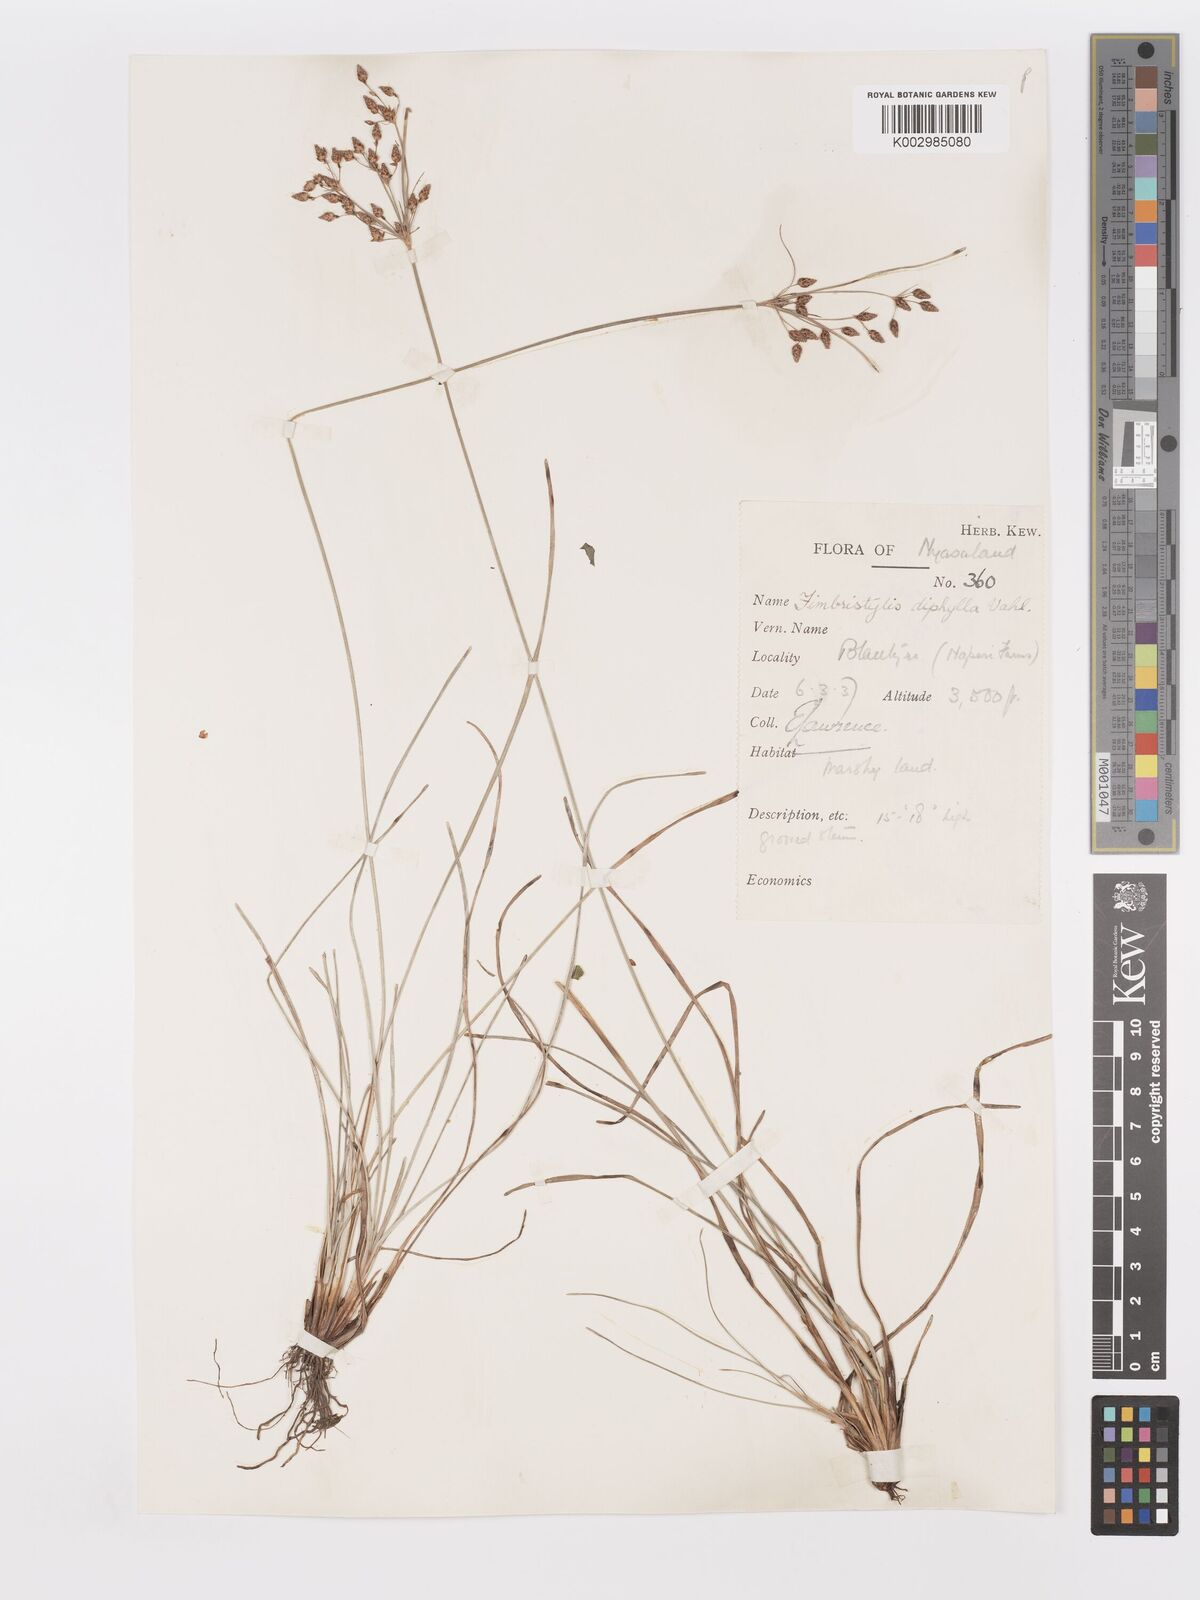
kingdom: Plantae
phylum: Tracheophyta
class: Liliopsida
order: Poales
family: Cyperaceae
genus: Fimbristylis
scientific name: Fimbristylis dichotoma
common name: Forked fimbry
